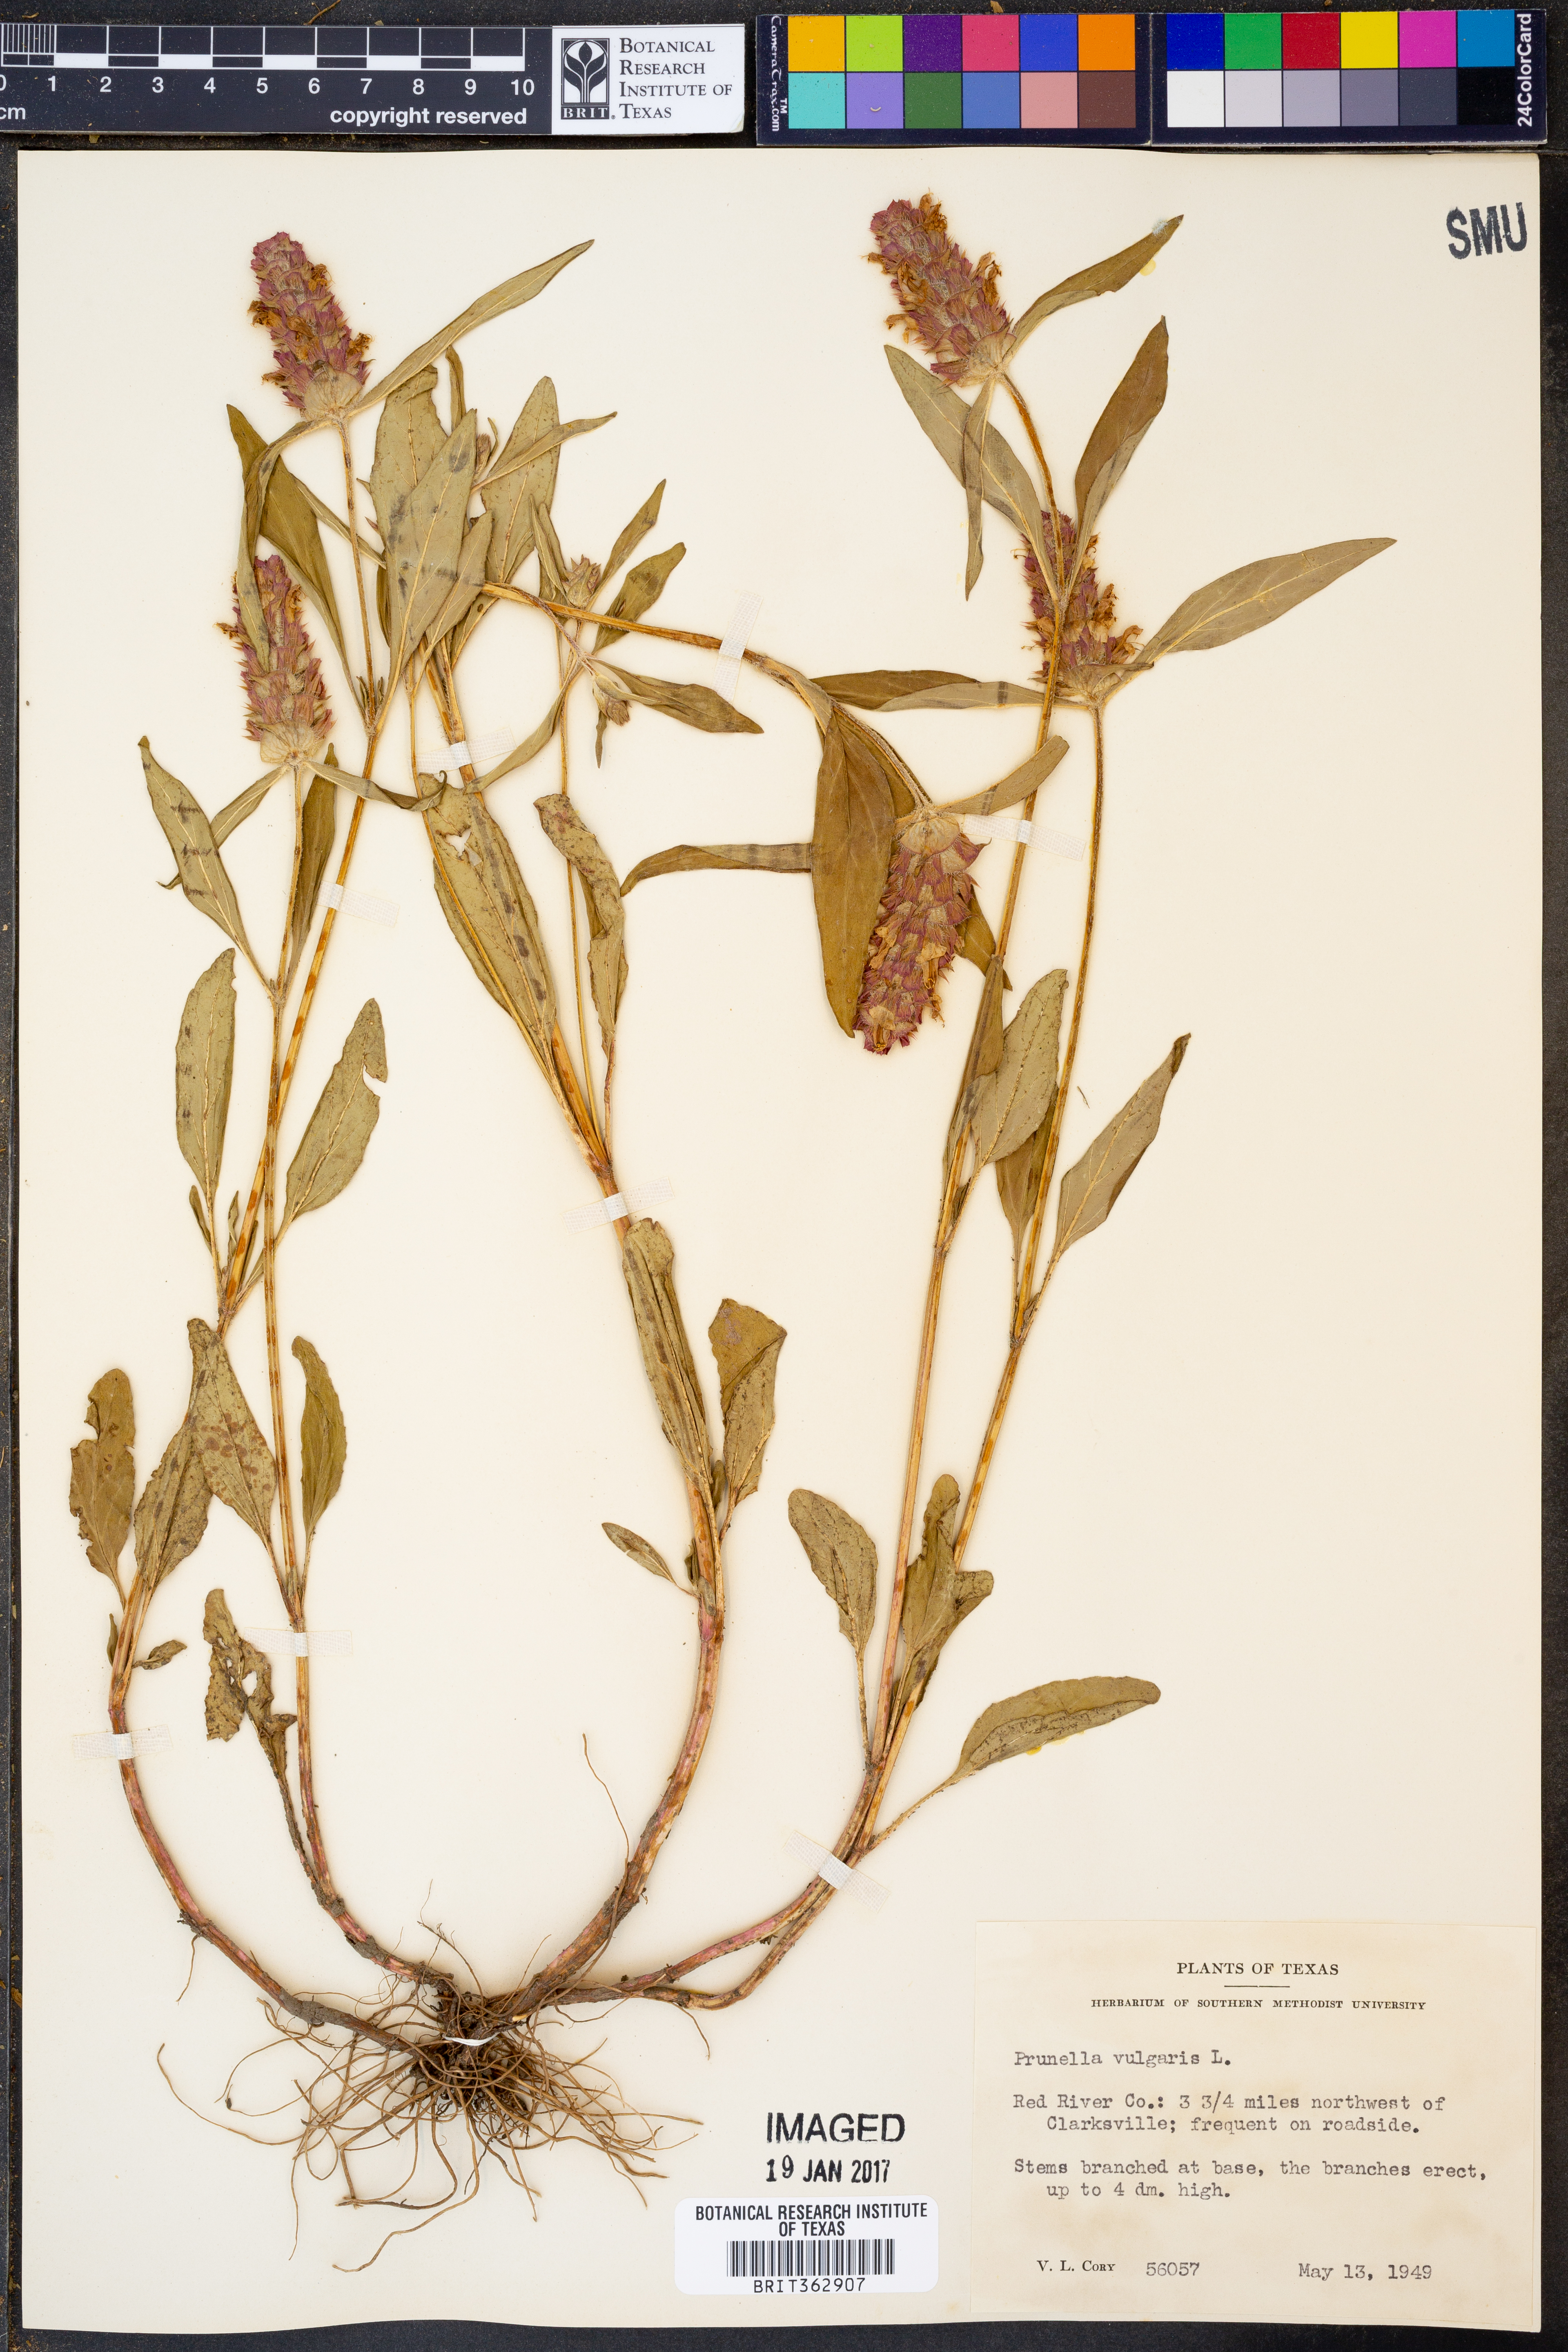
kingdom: Plantae
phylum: Tracheophyta
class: Magnoliopsida
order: Lamiales
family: Lamiaceae
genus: Prunella
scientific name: Prunella vulgaris
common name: Heal-all
